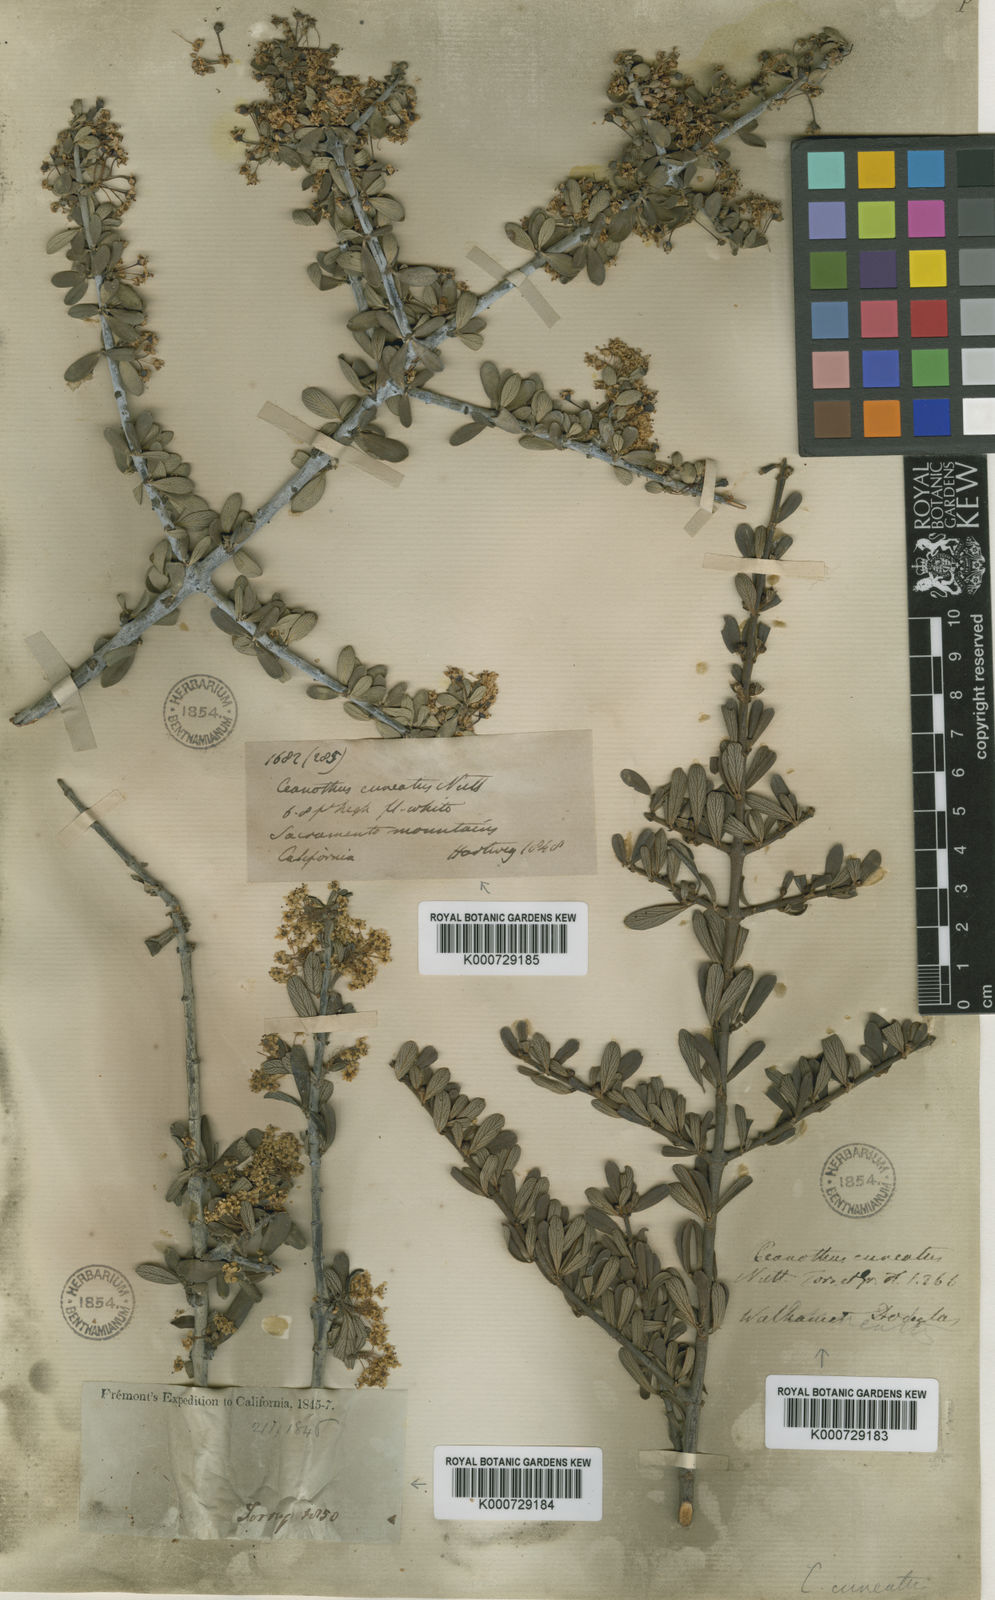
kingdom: Plantae
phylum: Tracheophyta
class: Magnoliopsida
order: Rosales
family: Rhamnaceae
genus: Ceanothus
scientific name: Ceanothus cuneatus
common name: Cuneate ceanothus
